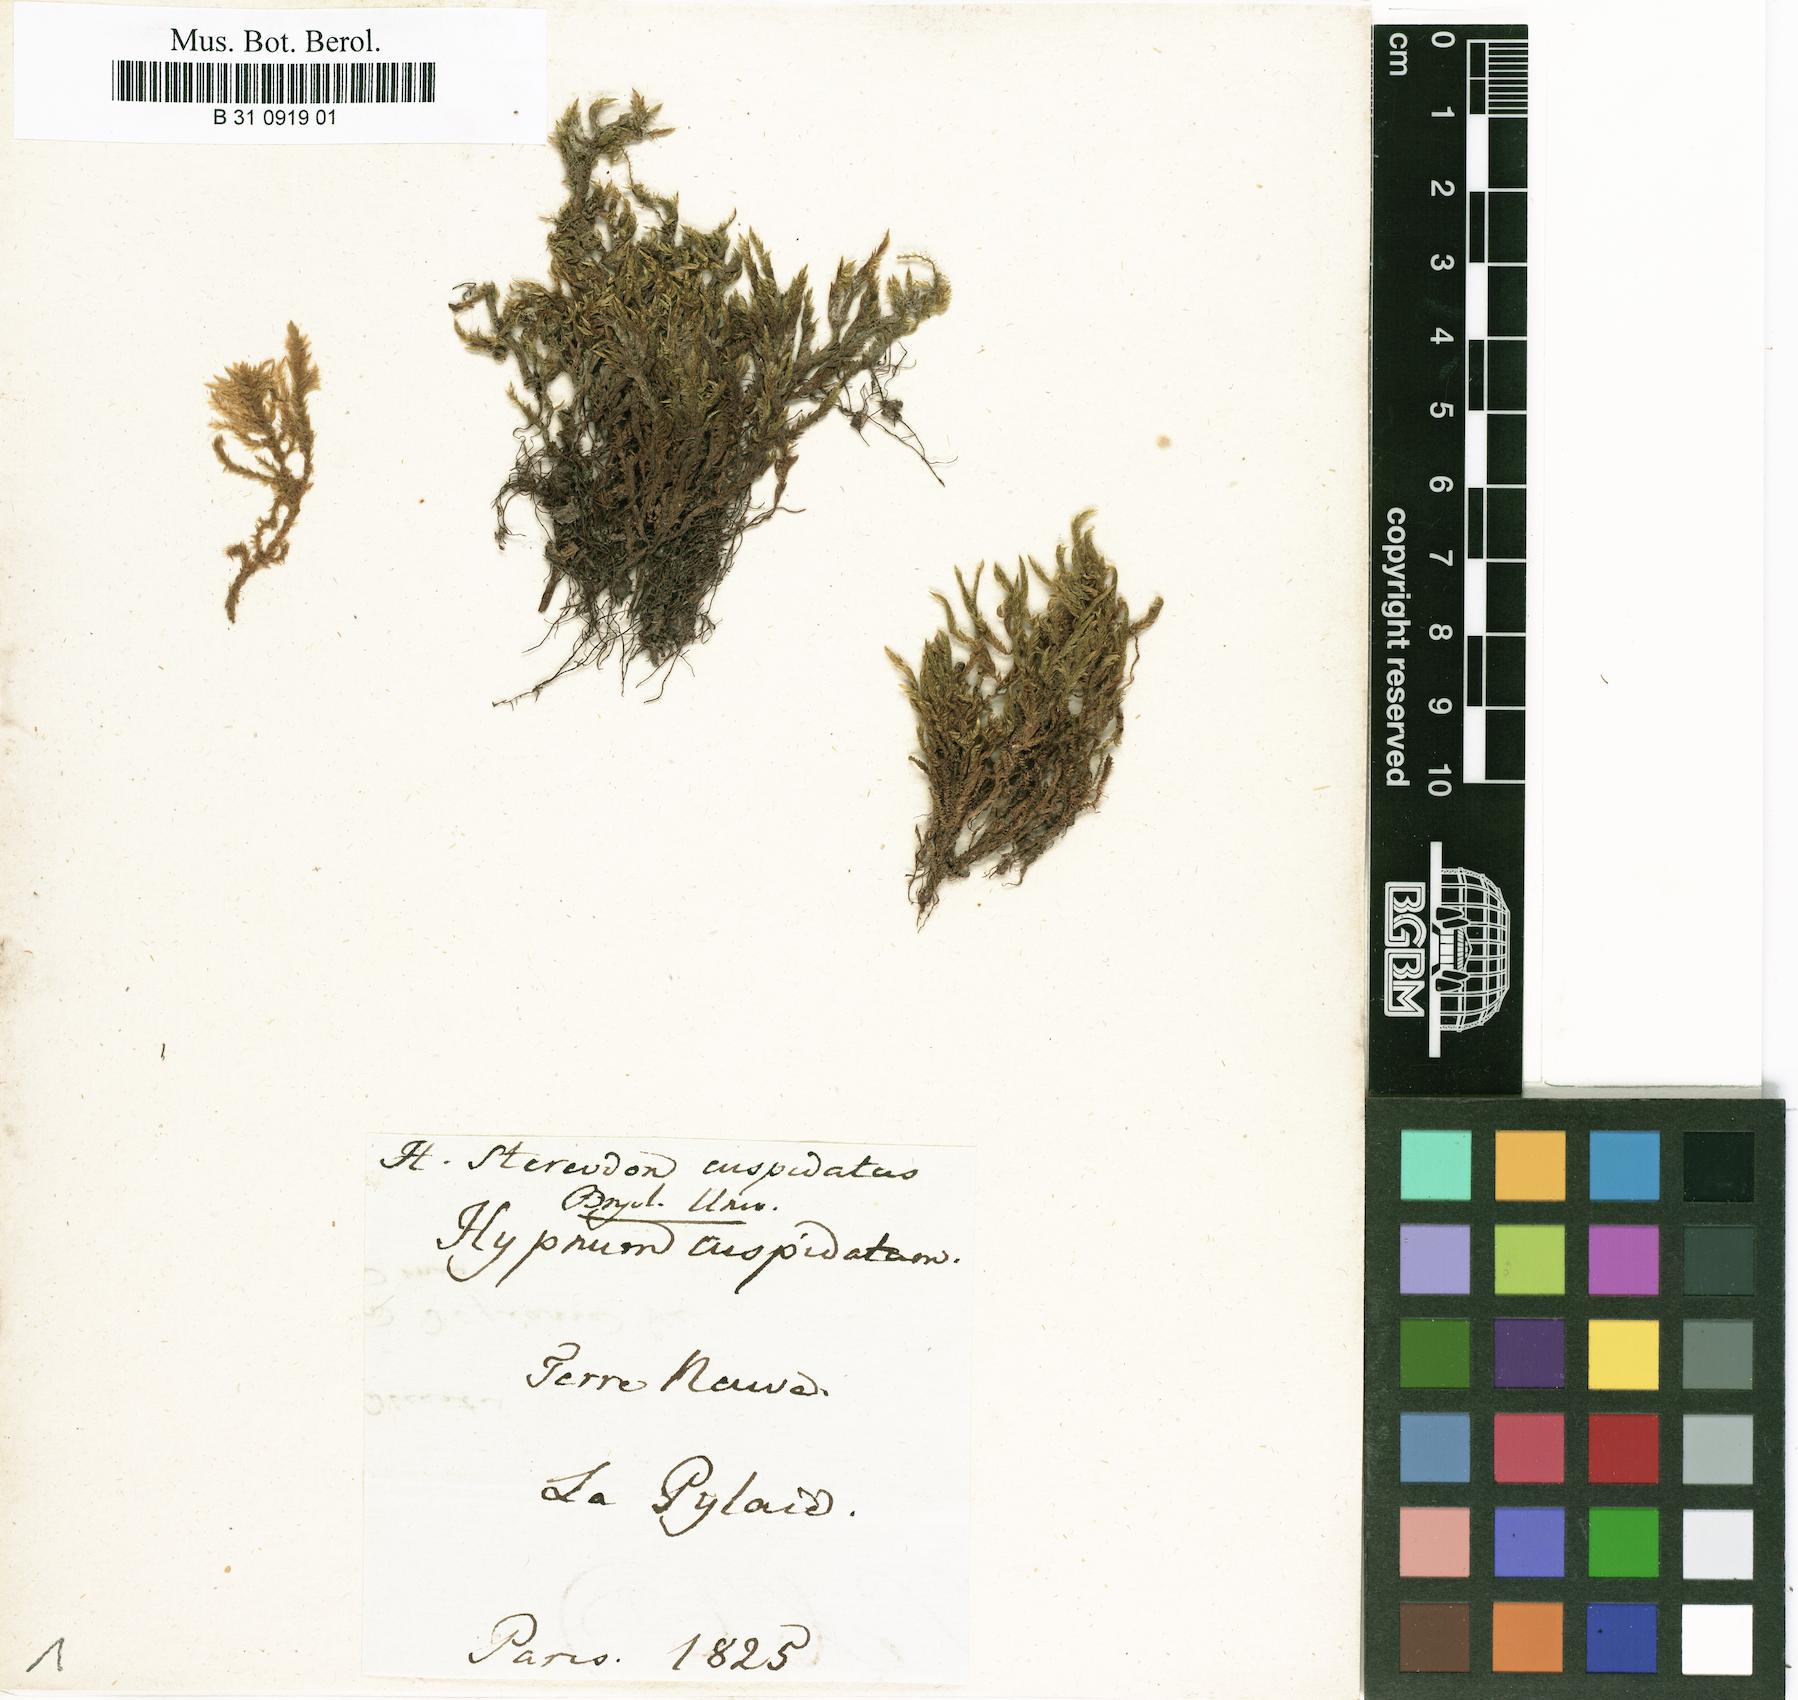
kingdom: Plantae
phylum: Bryophyta
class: Bryopsida
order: Hypnales
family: Pylaisiaceae
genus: Calliergonella
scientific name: Calliergonella cuspidata
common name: Common large wetland moss
